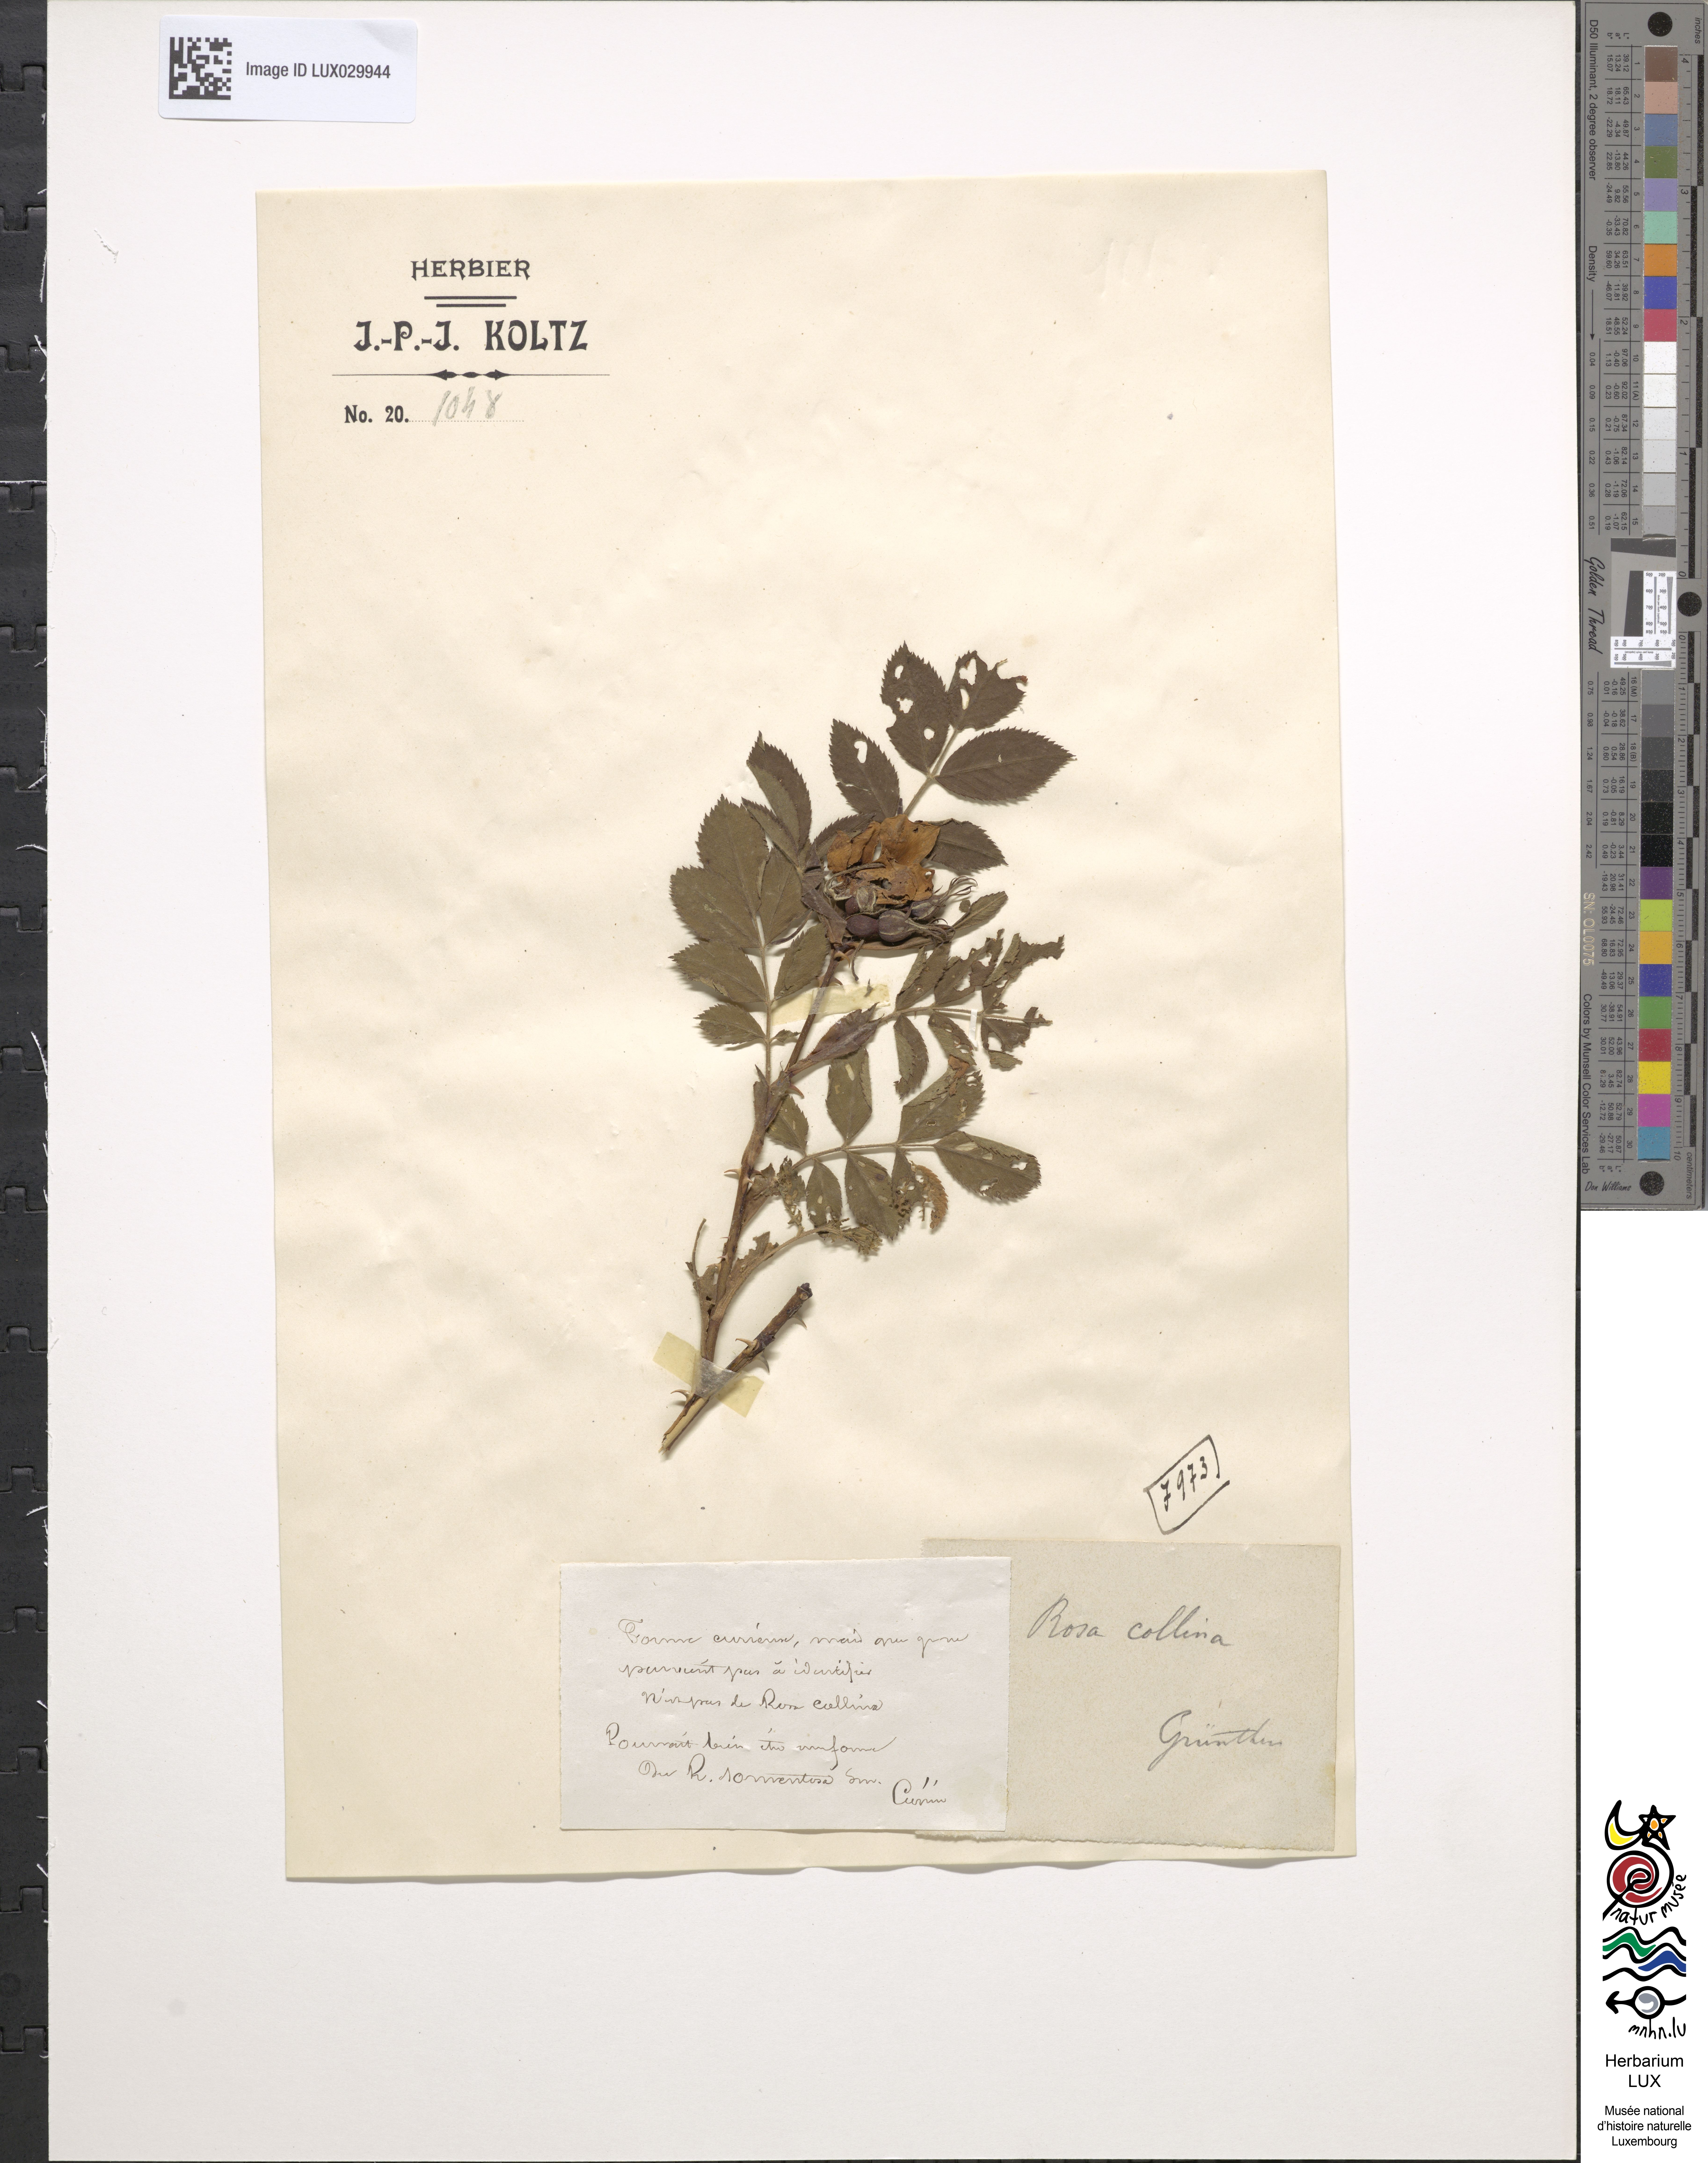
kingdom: Plantae
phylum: Tracheophyta
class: Magnoliopsida
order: Rosales
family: Rosaceae
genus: Rosa
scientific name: Rosa tomentosa
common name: Downy rose
